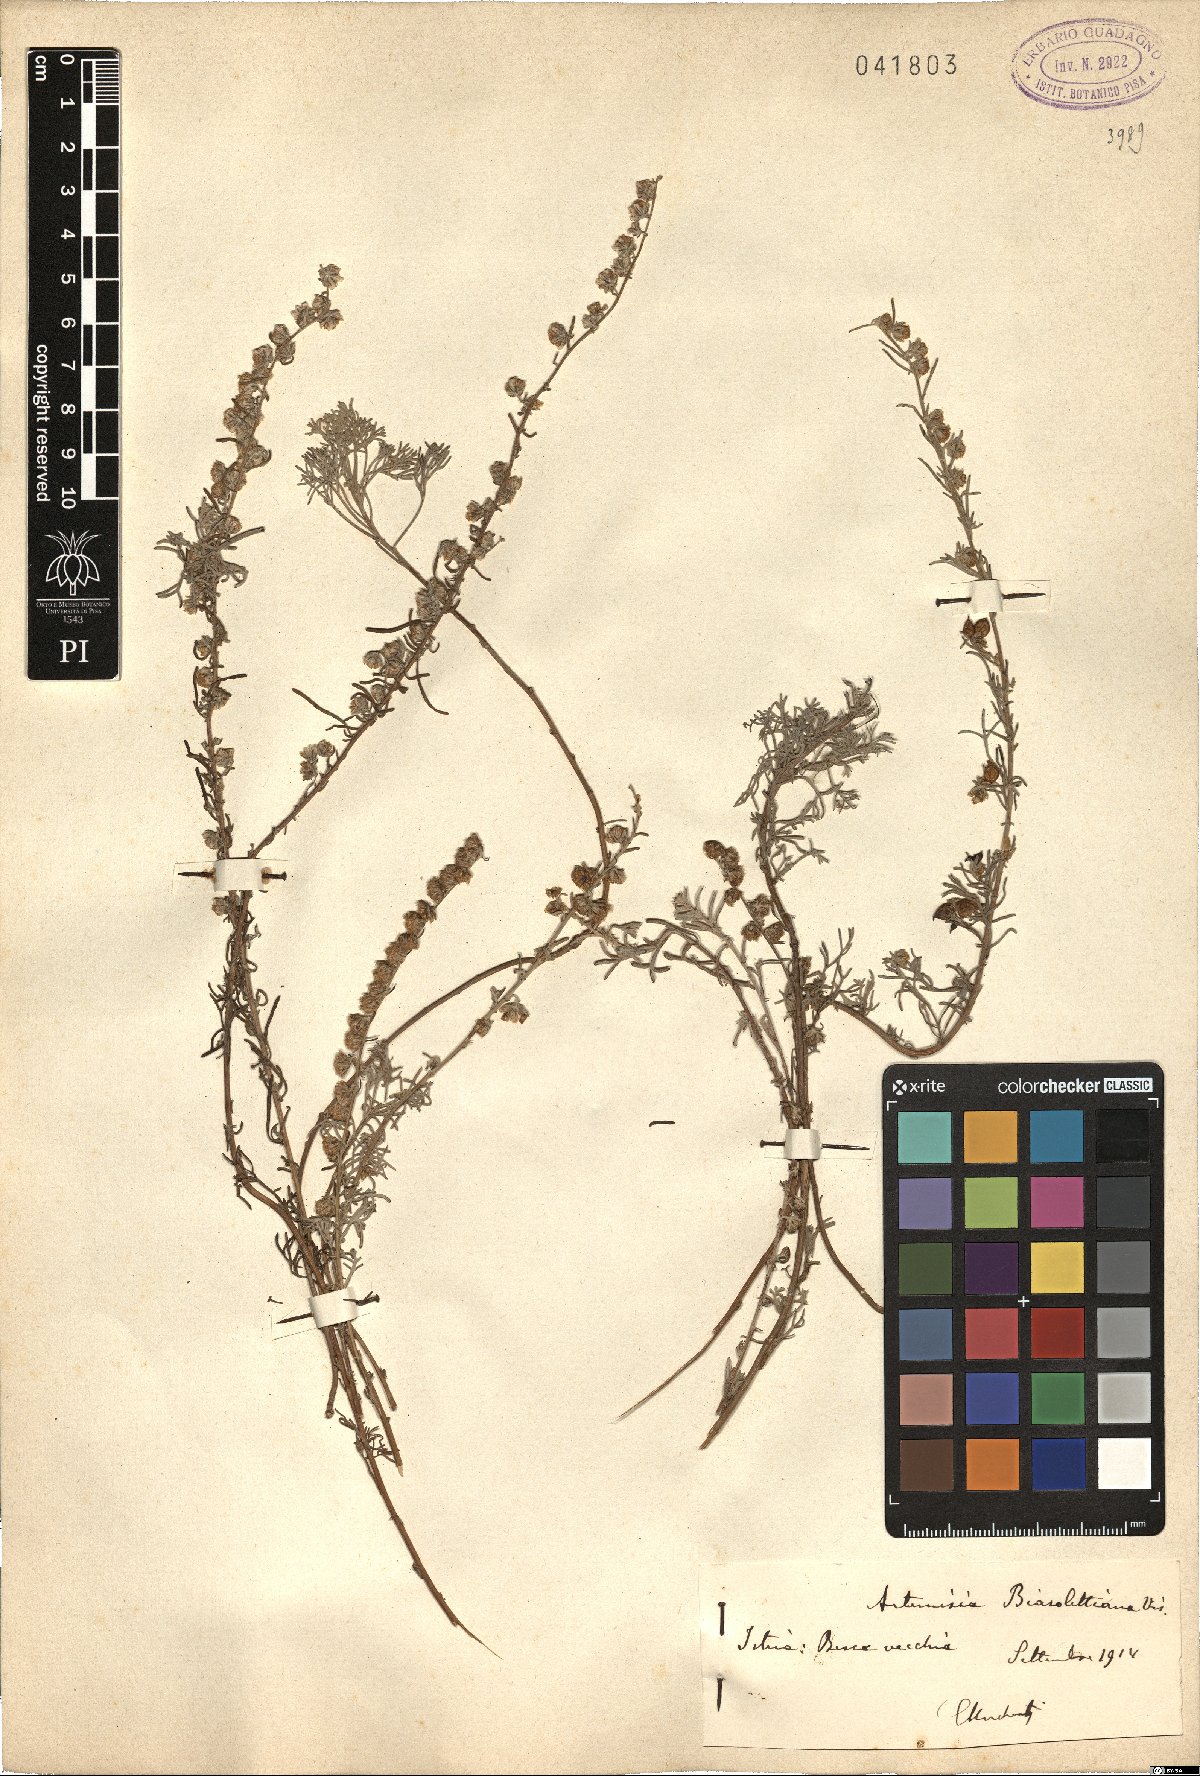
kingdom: Plantae
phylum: Tracheophyta
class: Magnoliopsida
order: Asterales
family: Asteraceae
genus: Artemisia
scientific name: Artemisia alba
